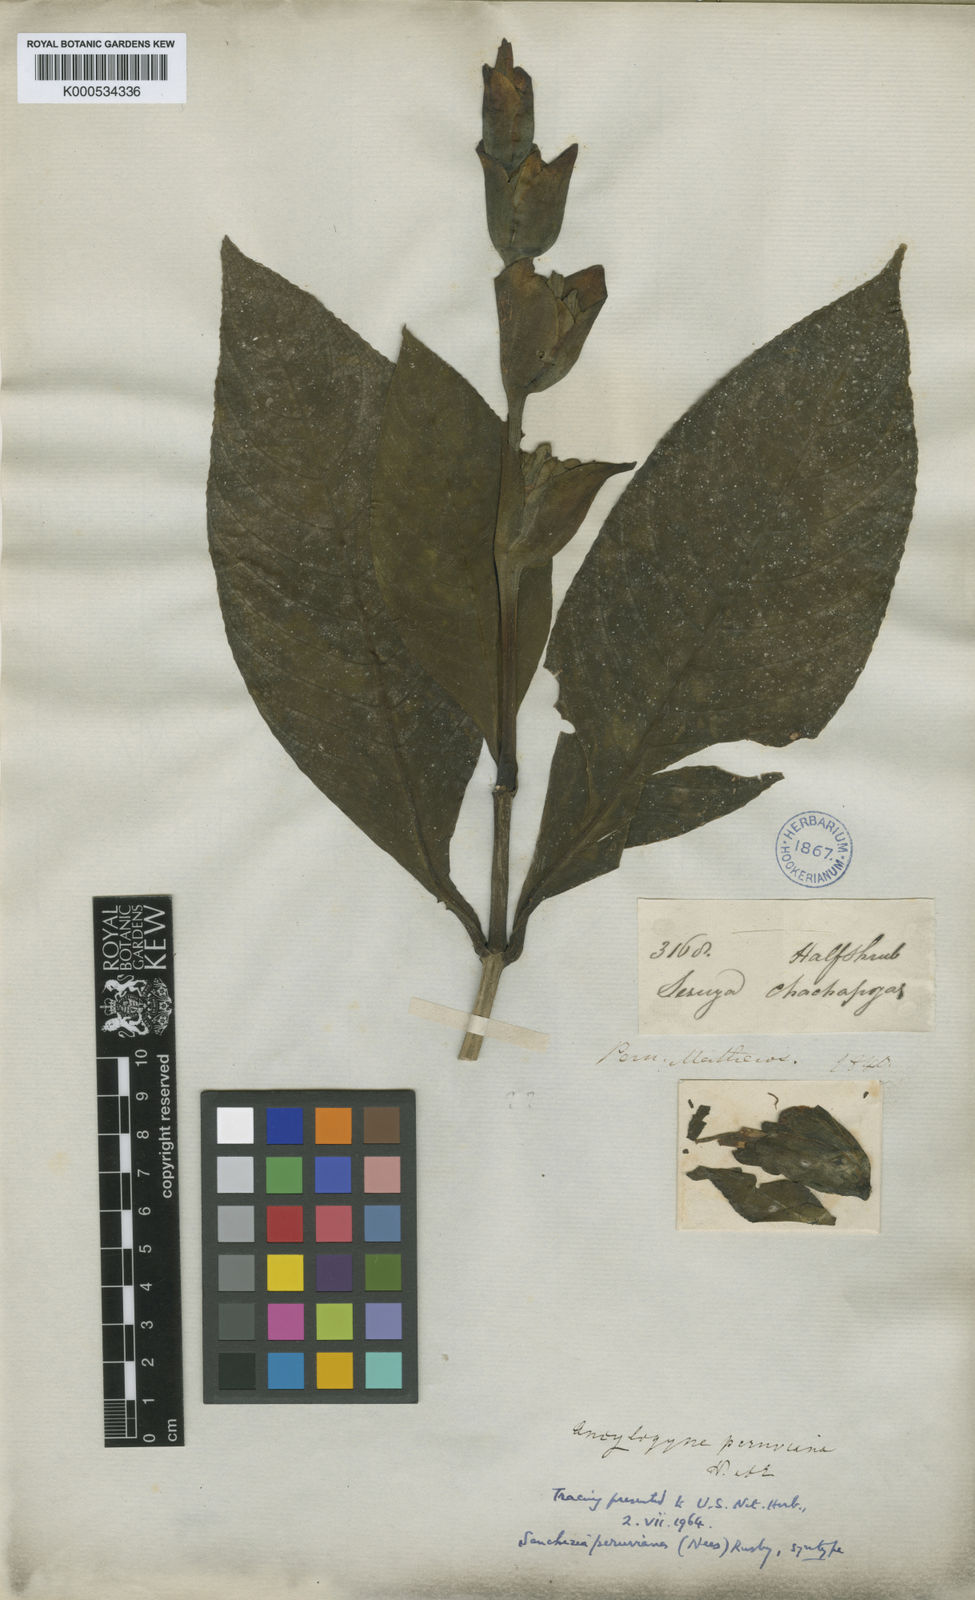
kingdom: Plantae
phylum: Tracheophyta
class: Magnoliopsida
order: Lamiales
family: Acanthaceae
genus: Sanchezia
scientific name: Sanchezia oblonga
